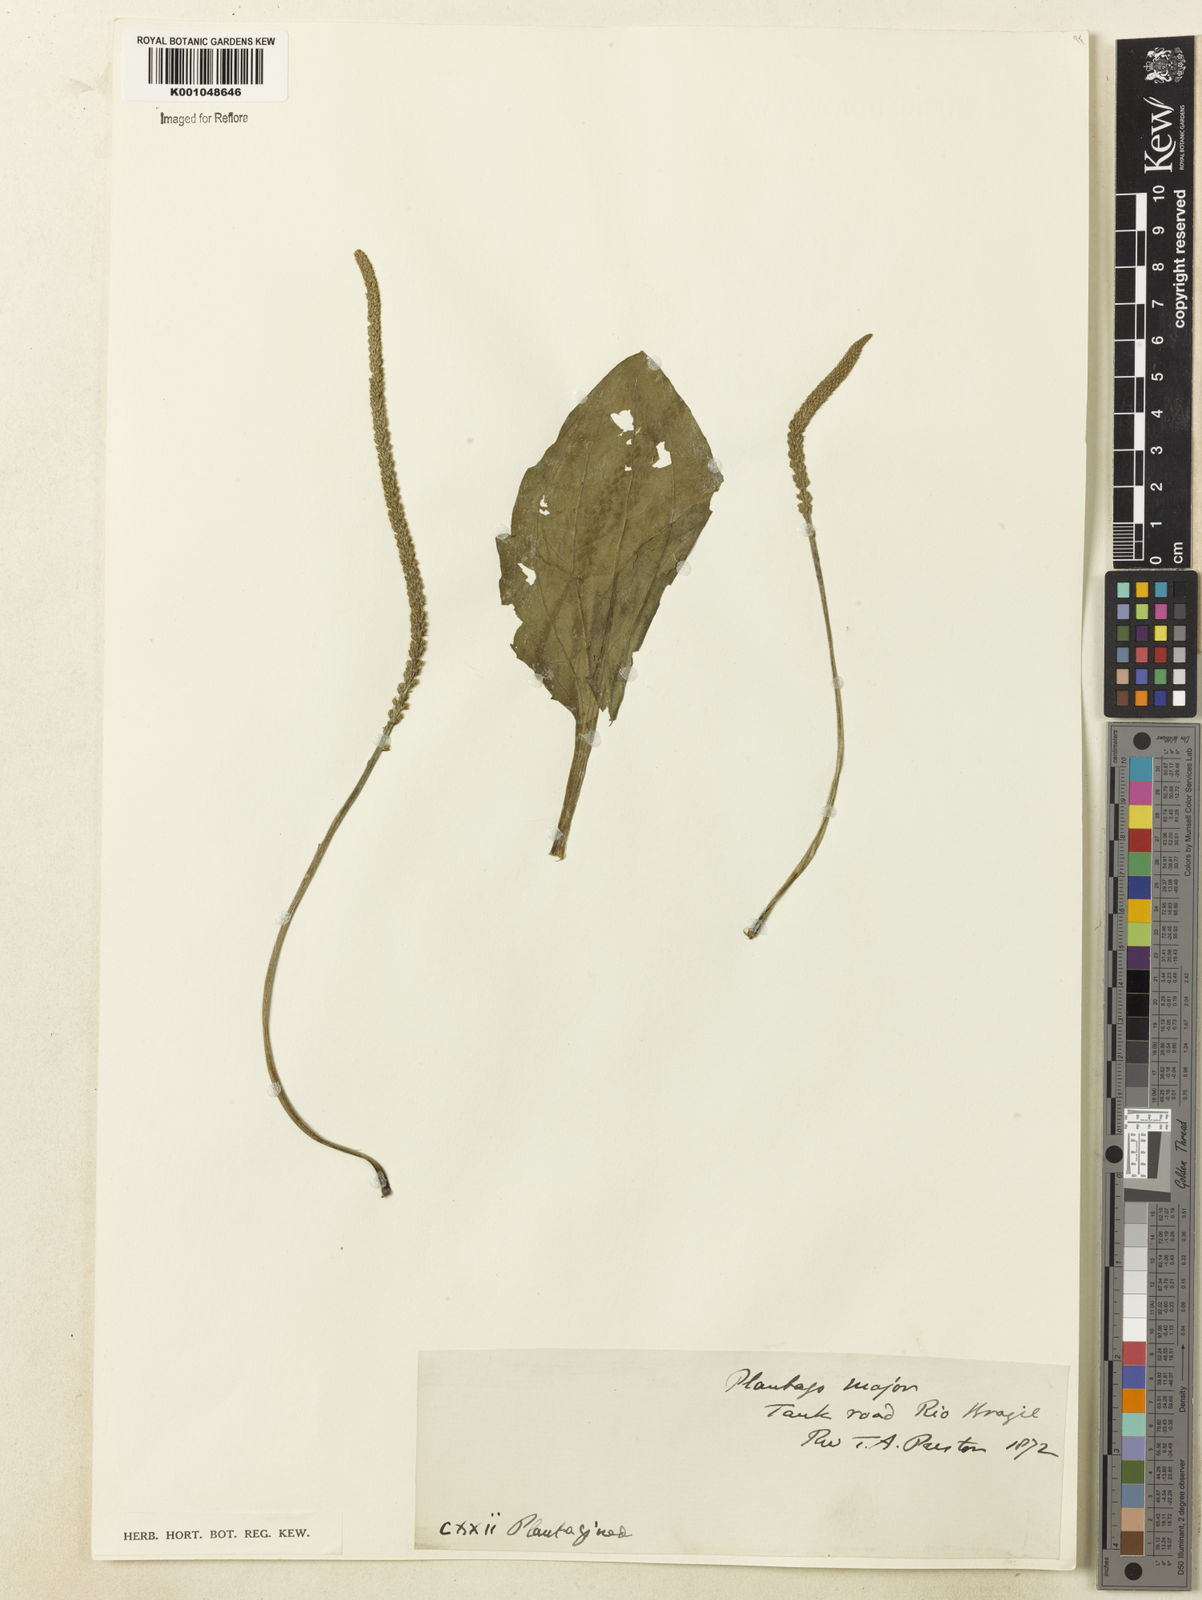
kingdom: Plantae
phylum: Tracheophyta
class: Magnoliopsida
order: Lamiales
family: Plantaginaceae
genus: Plantago
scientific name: Plantago major
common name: Common plantain
